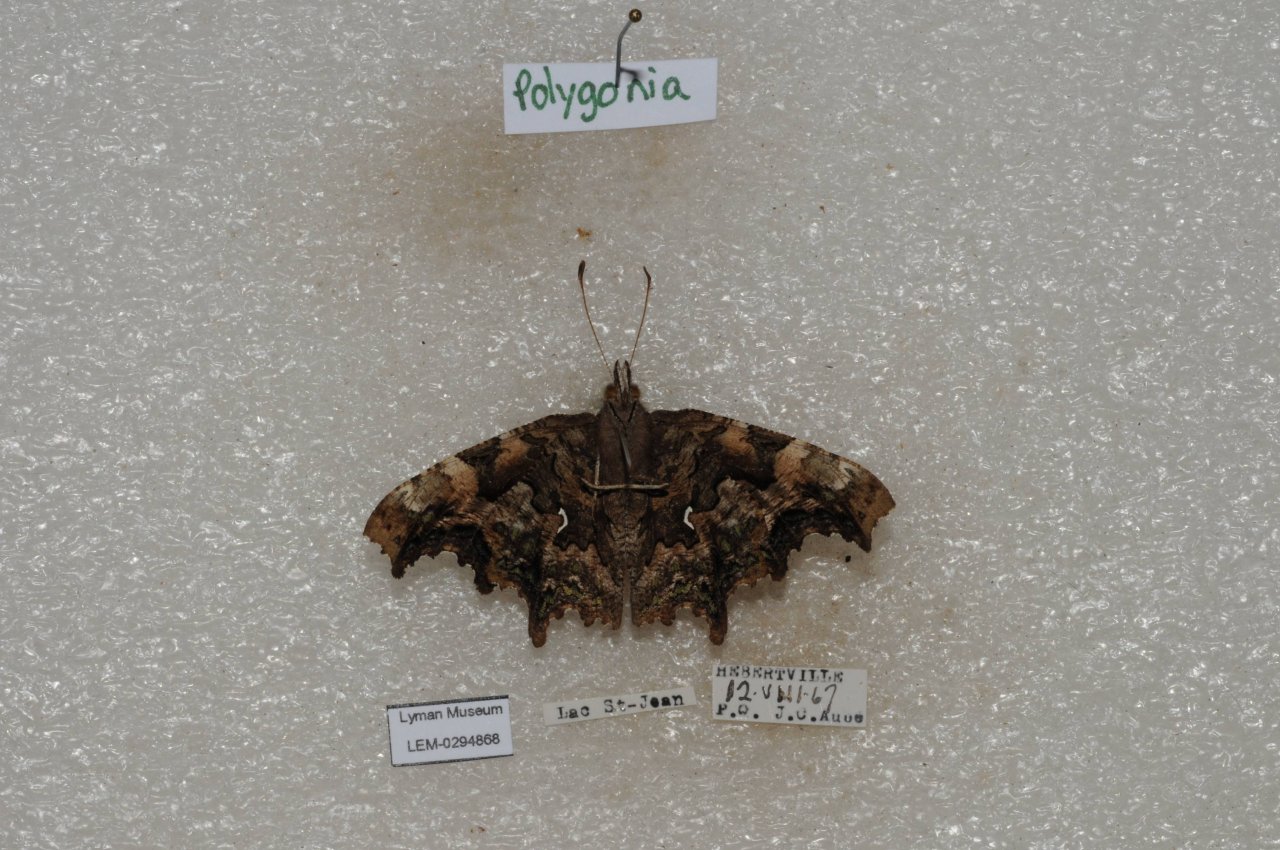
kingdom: Animalia
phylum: Arthropoda
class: Insecta
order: Lepidoptera
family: Nymphalidae
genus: Polygonia
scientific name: Polygonia faunus
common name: Green Comma
